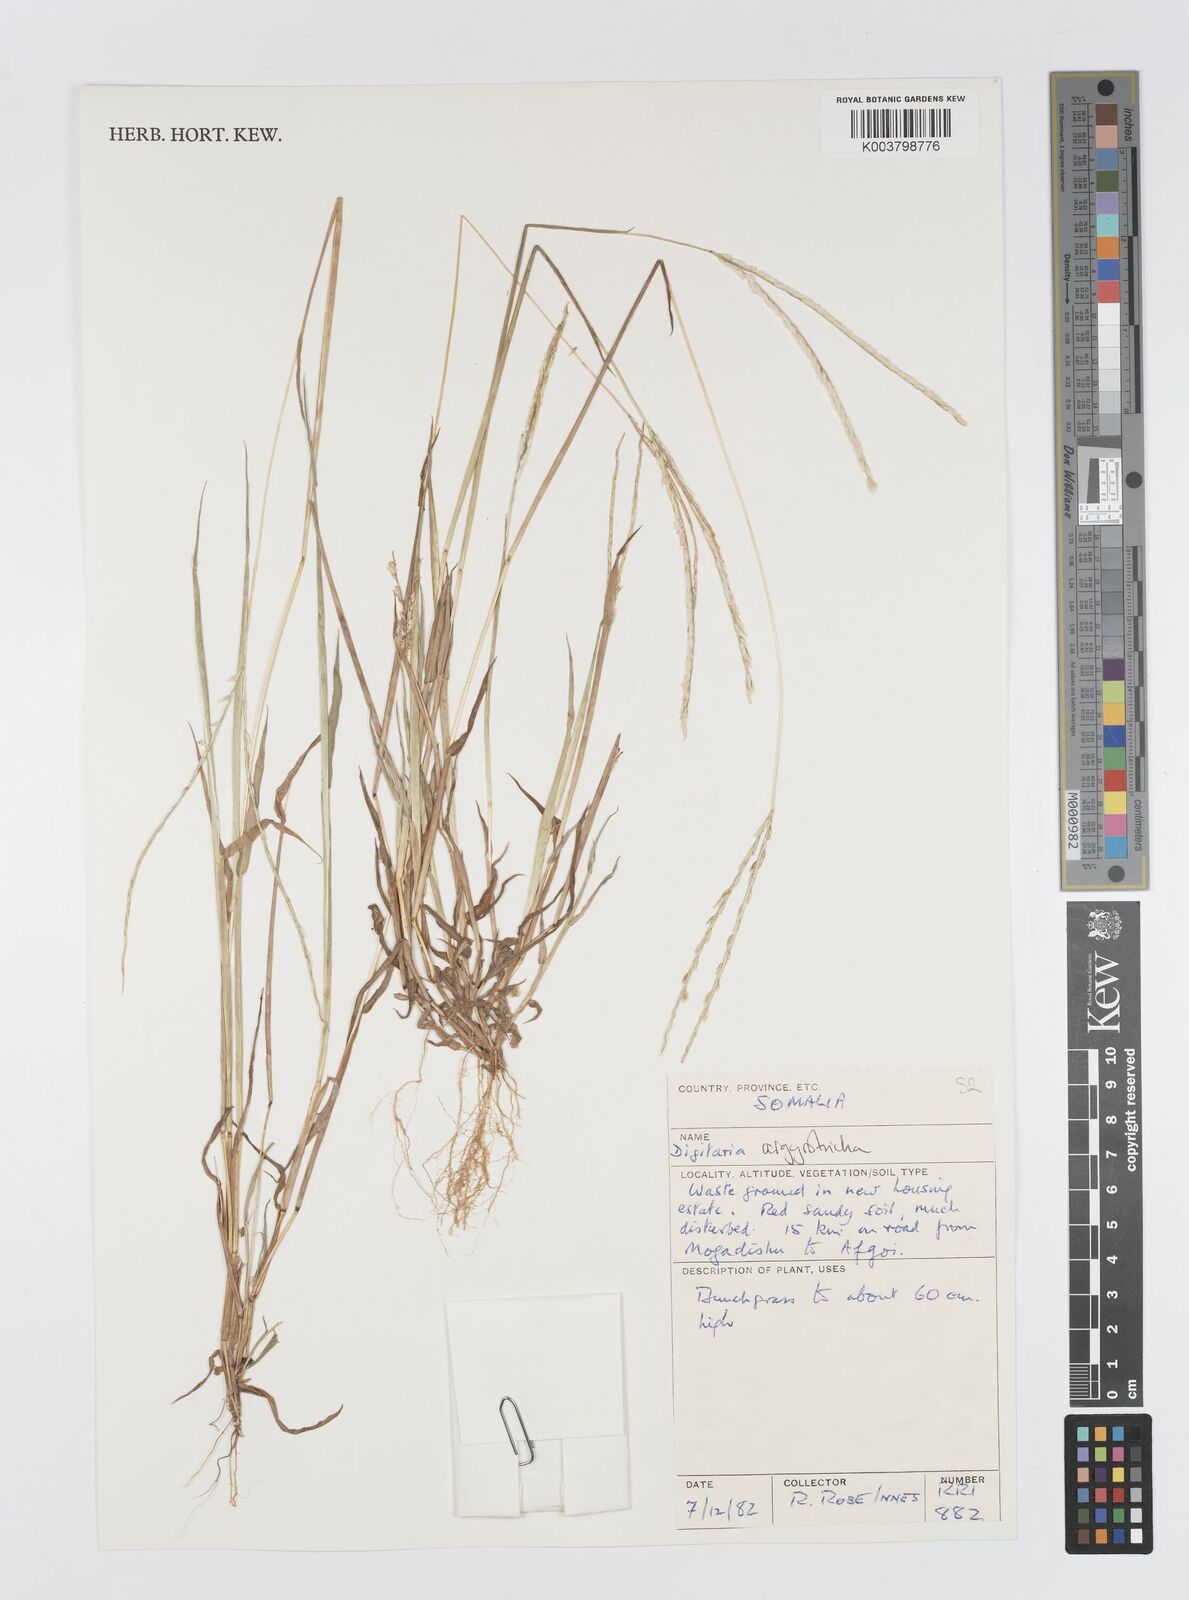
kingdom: Plantae
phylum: Tracheophyta
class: Liliopsida
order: Poales
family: Poaceae
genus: Digitaria
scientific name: Digitaria argyrotricha
